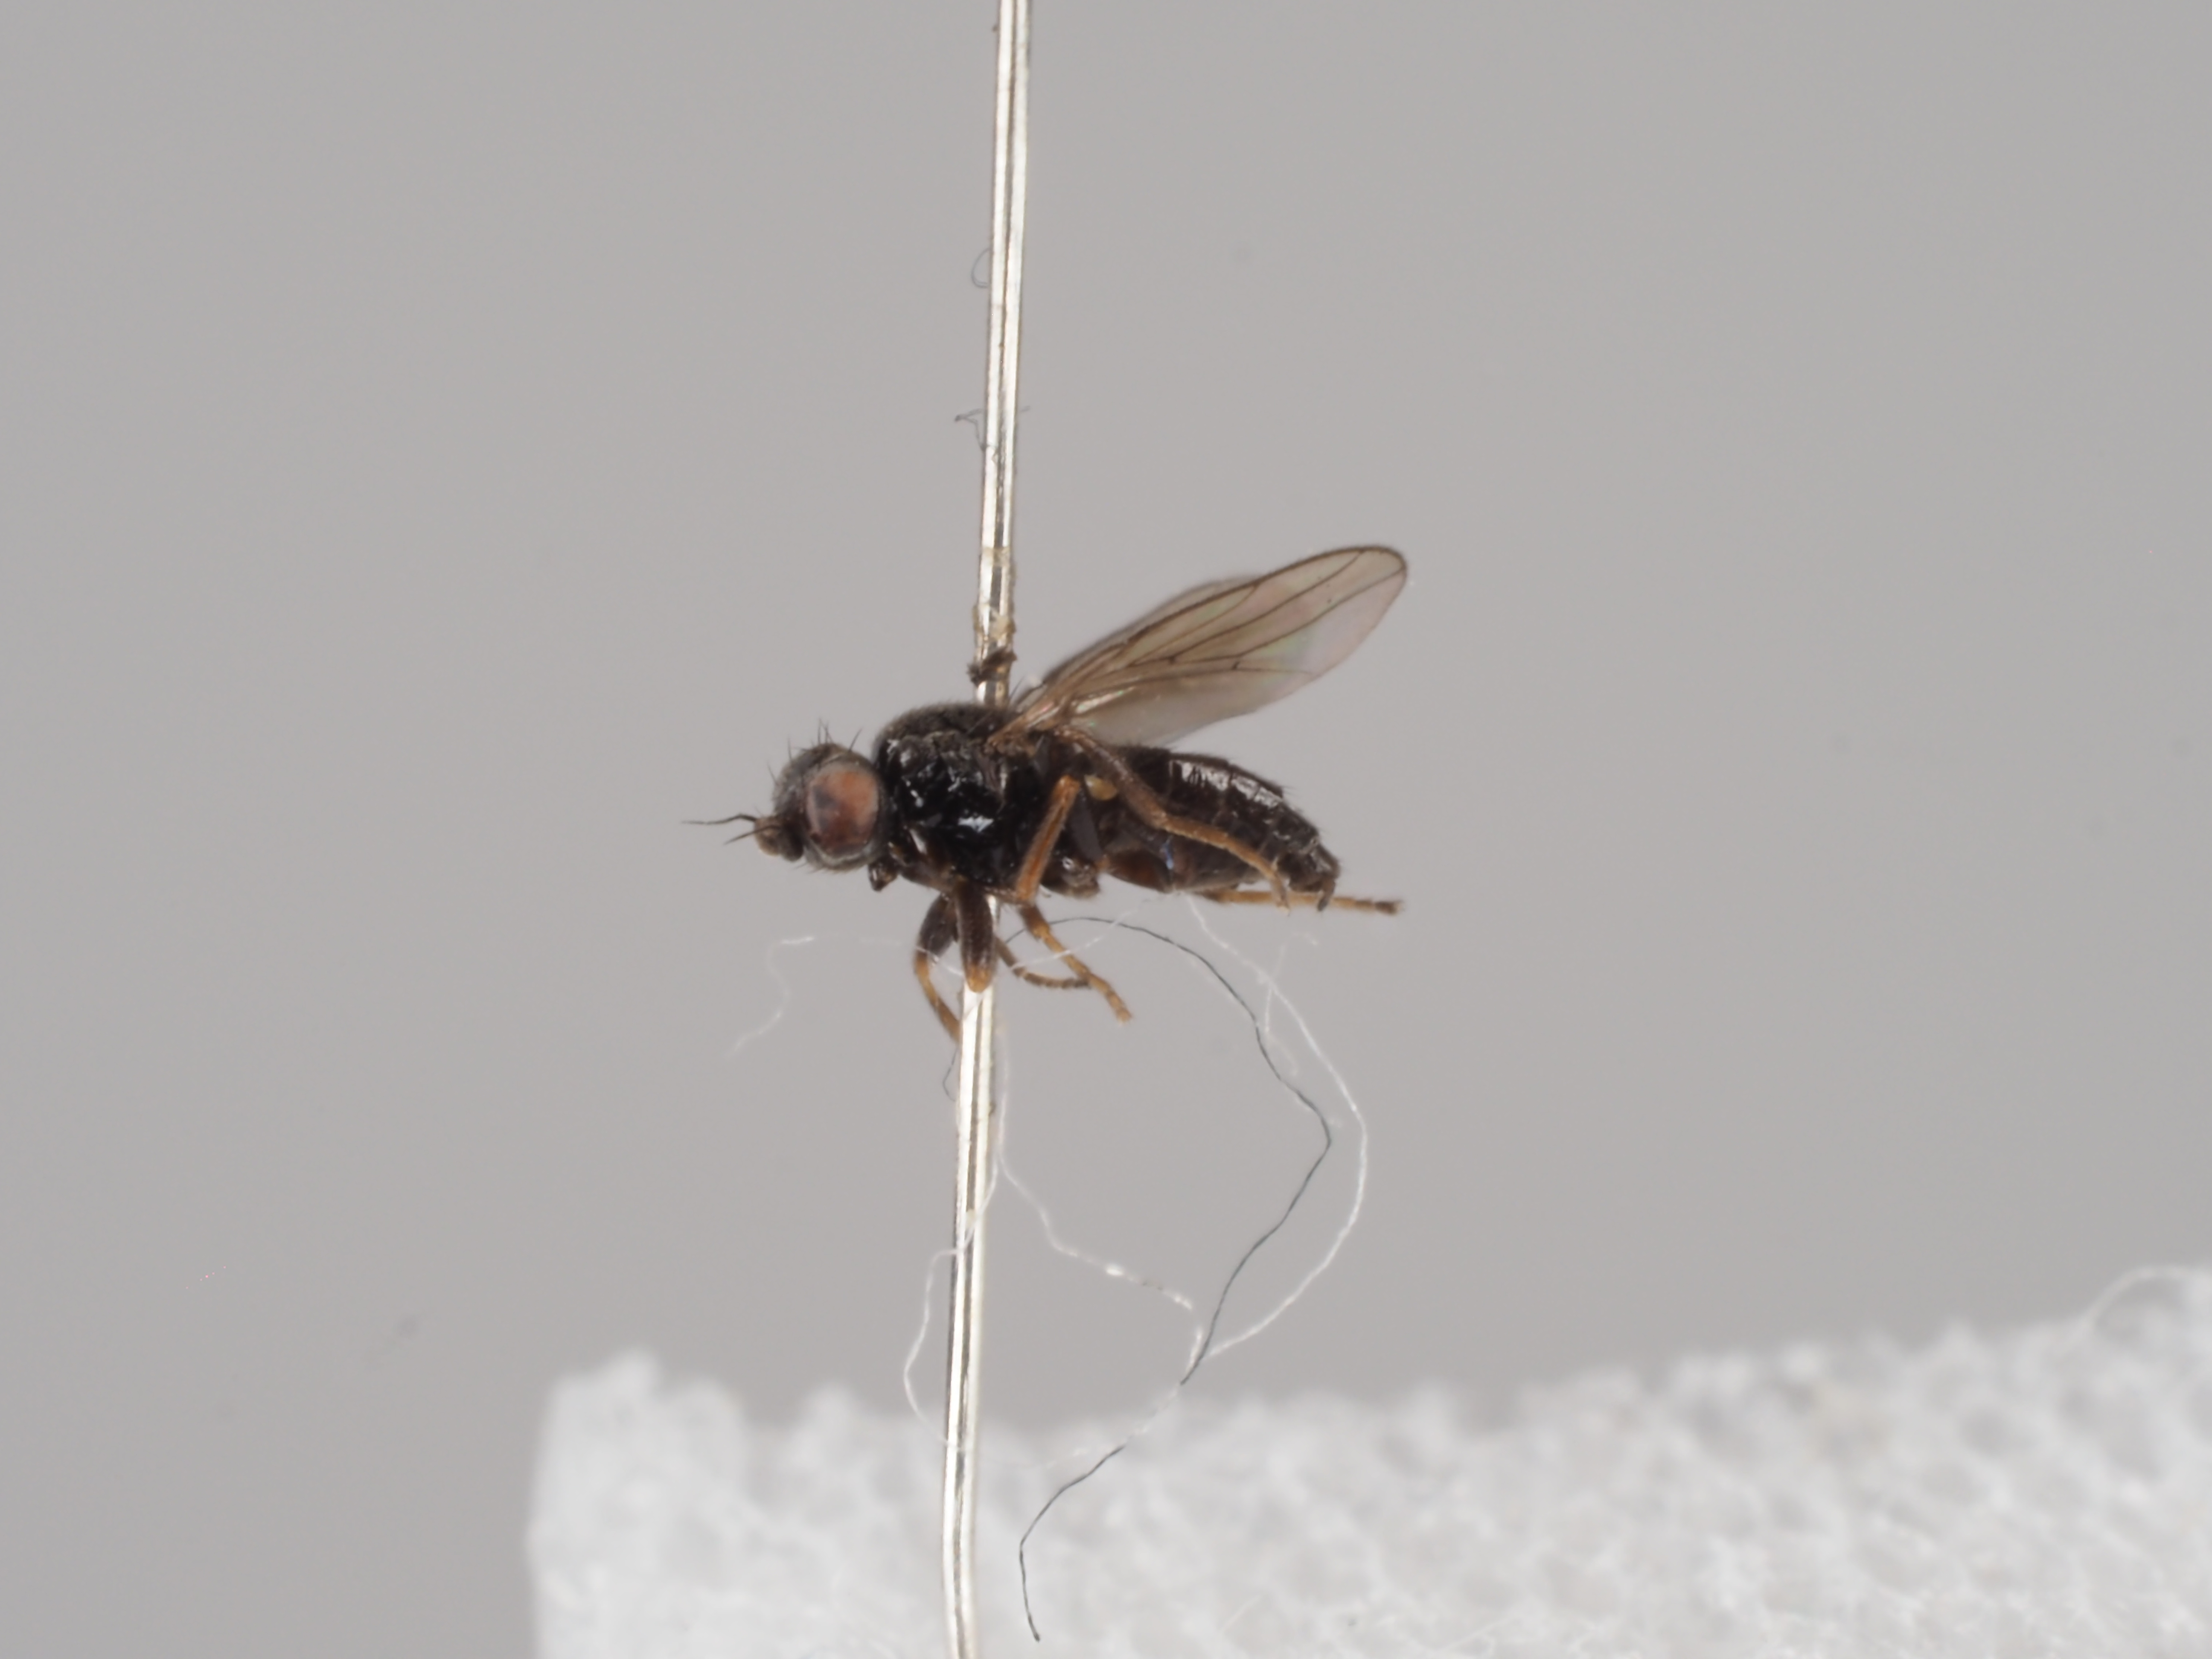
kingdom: Animalia
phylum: Arthropoda
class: Insecta
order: Diptera
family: Chloropidae
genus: Elachiptera
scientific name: Elachiptera scrobiculata
